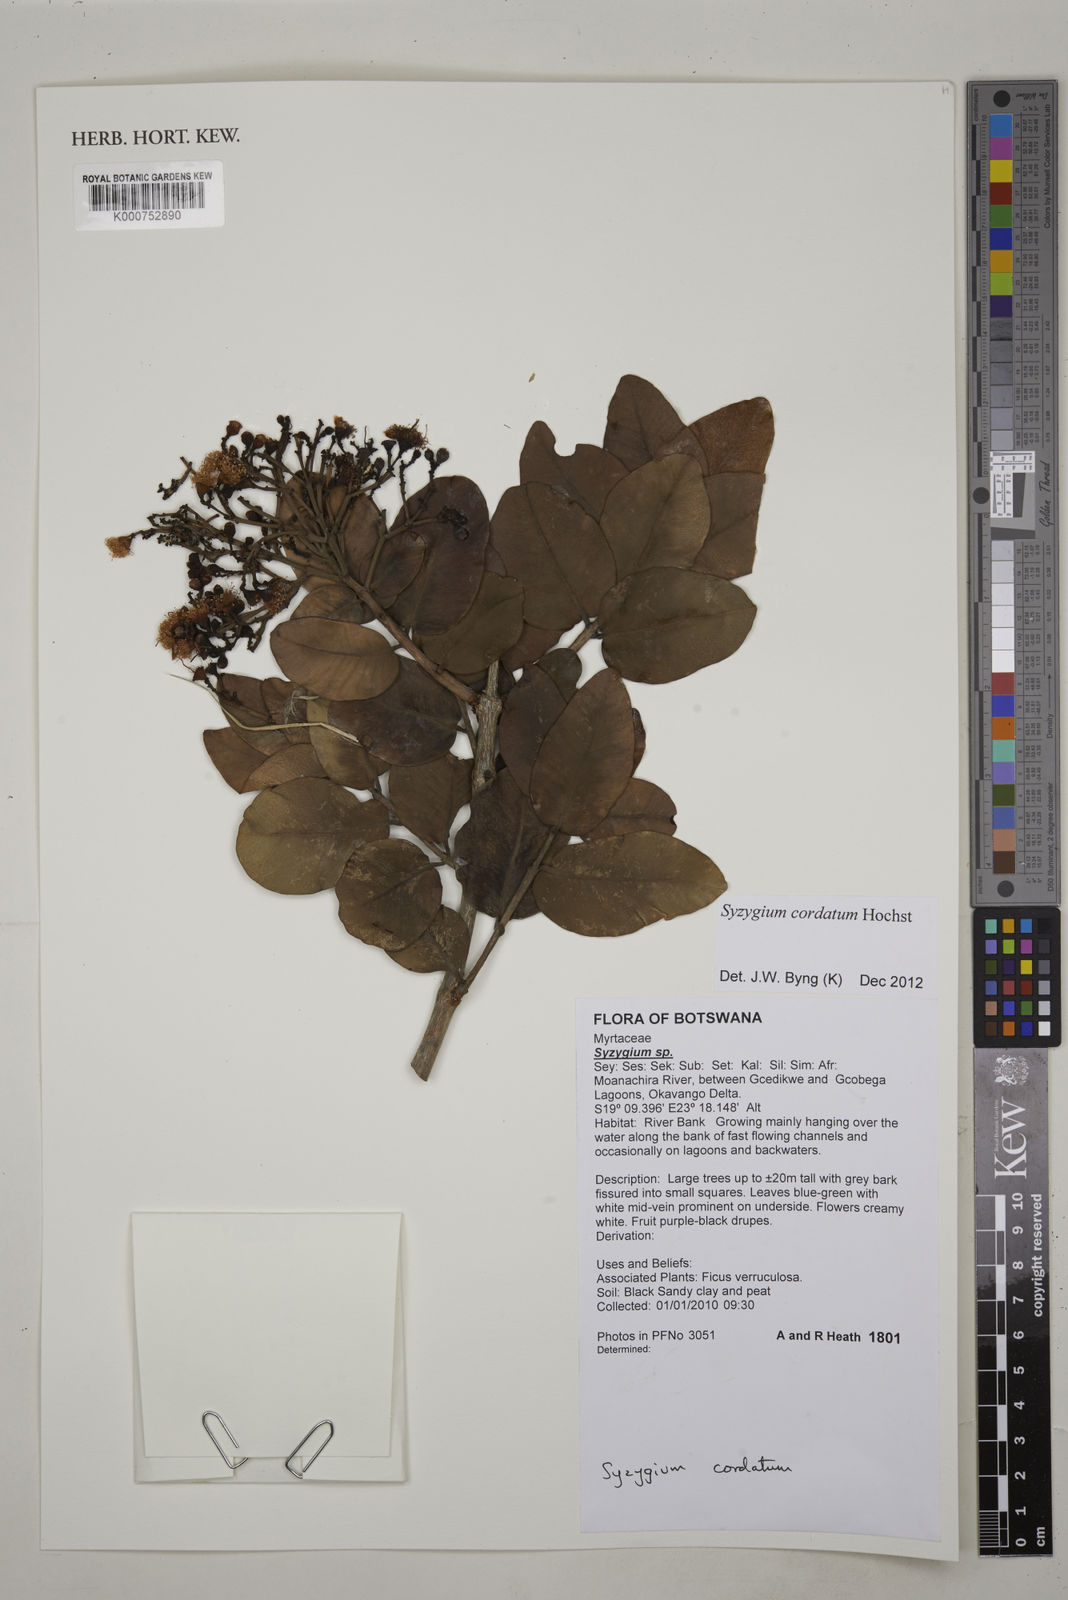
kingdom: Plantae
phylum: Tracheophyta
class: Magnoliopsida
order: Myrtales
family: Myrtaceae
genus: Syzygium
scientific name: Syzygium cordatum
